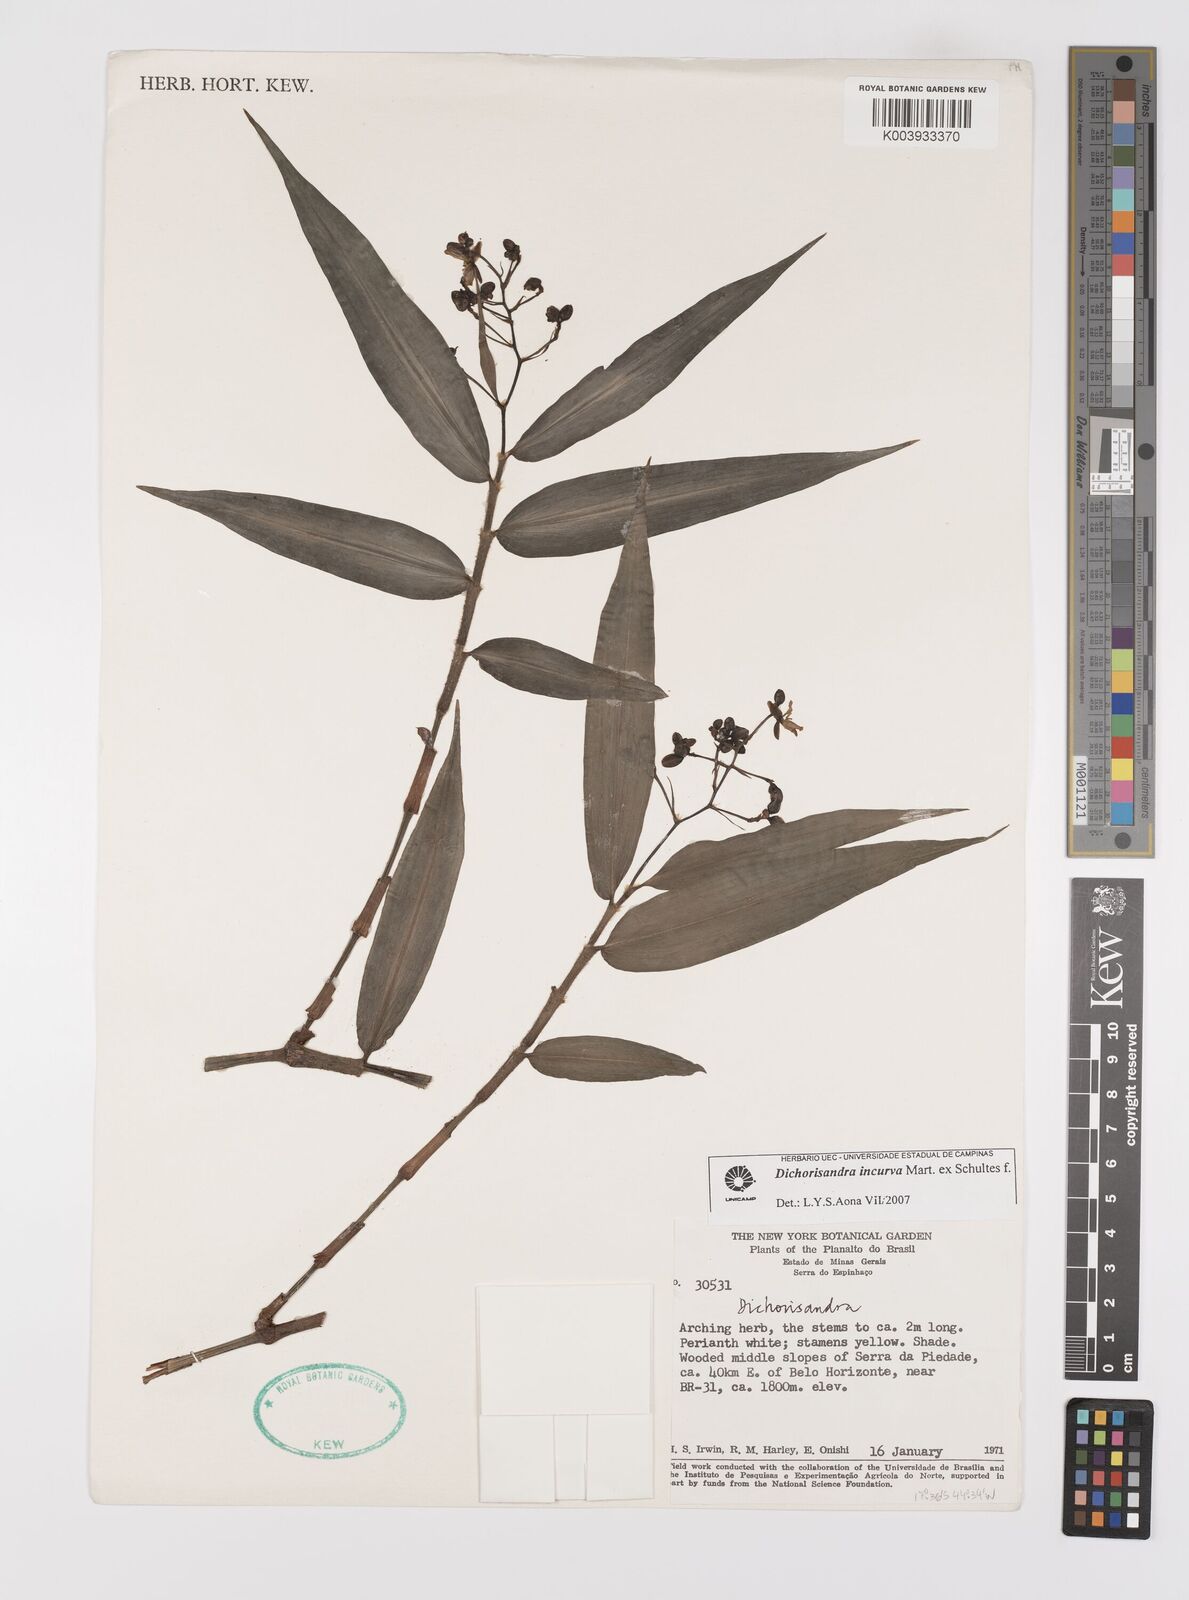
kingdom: Plantae
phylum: Tracheophyta
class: Liliopsida
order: Commelinales
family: Commelinaceae
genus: Dichorisandra
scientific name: Dichorisandra incurva
